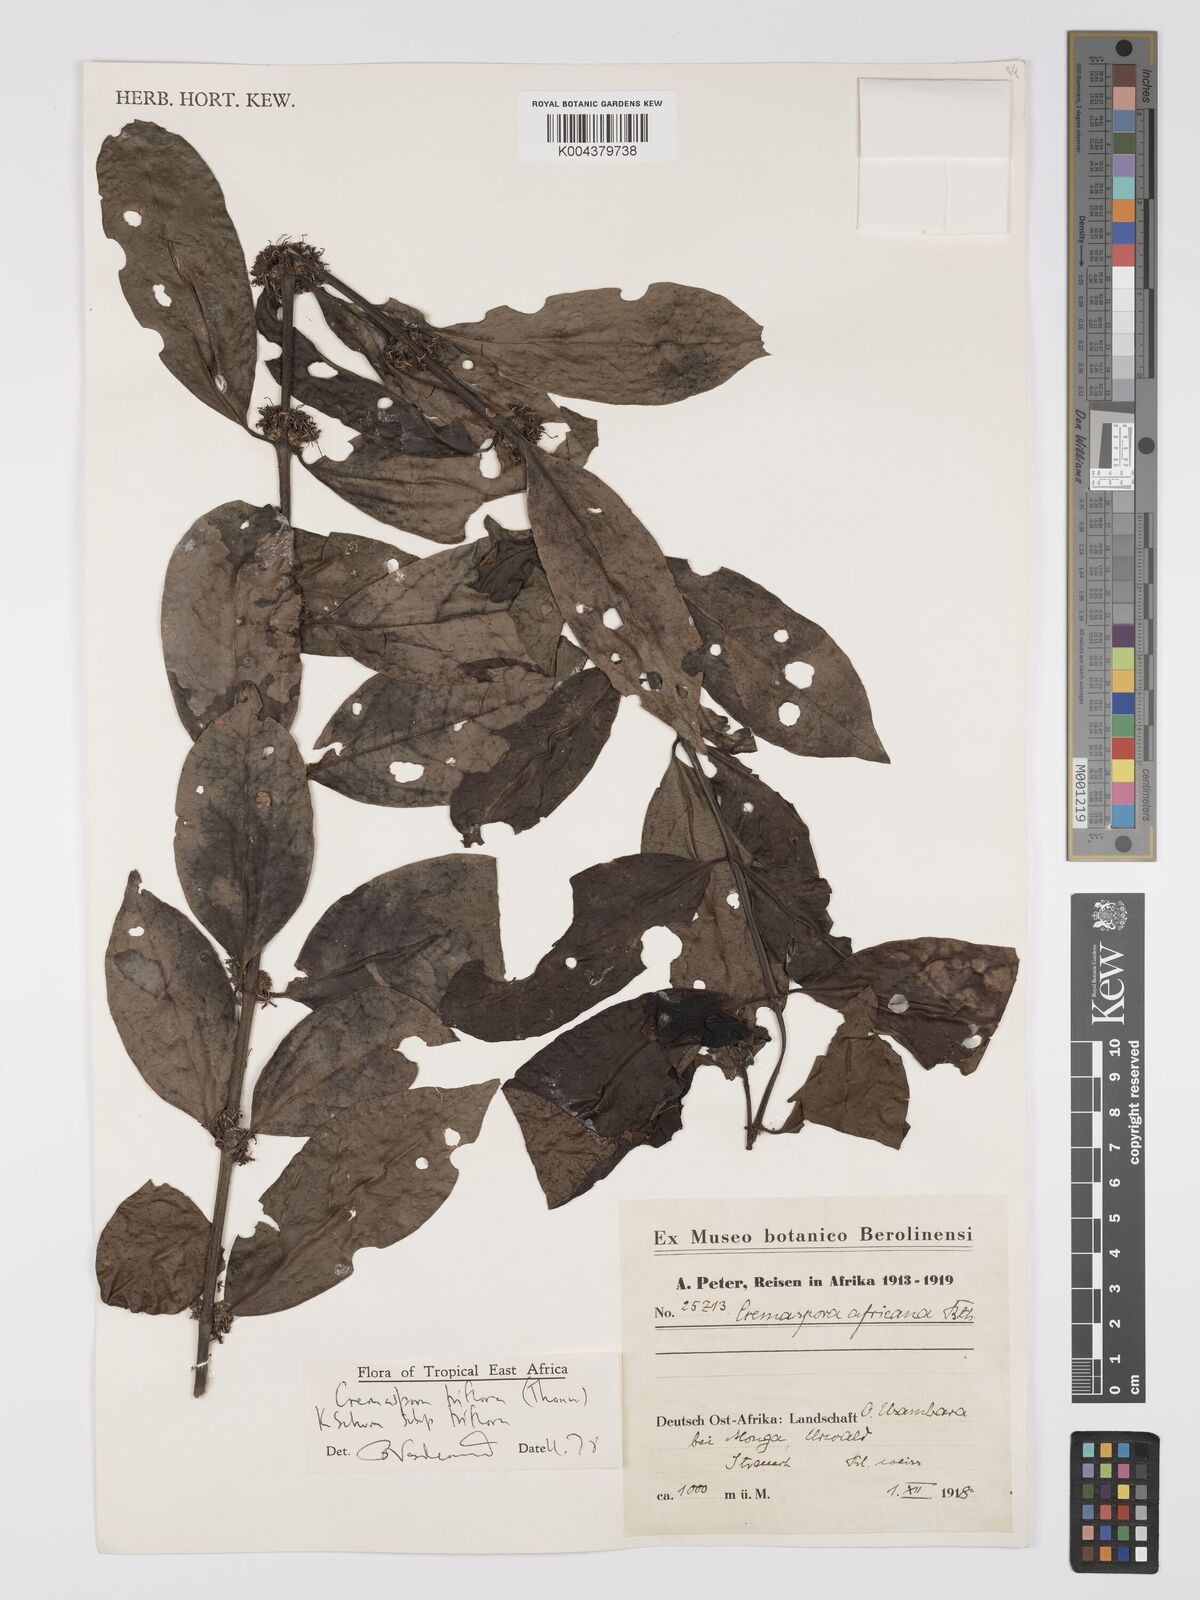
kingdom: Plantae
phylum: Tracheophyta
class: Magnoliopsida
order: Gentianales
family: Rubiaceae
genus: Cremaspora
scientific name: Cremaspora triflora
